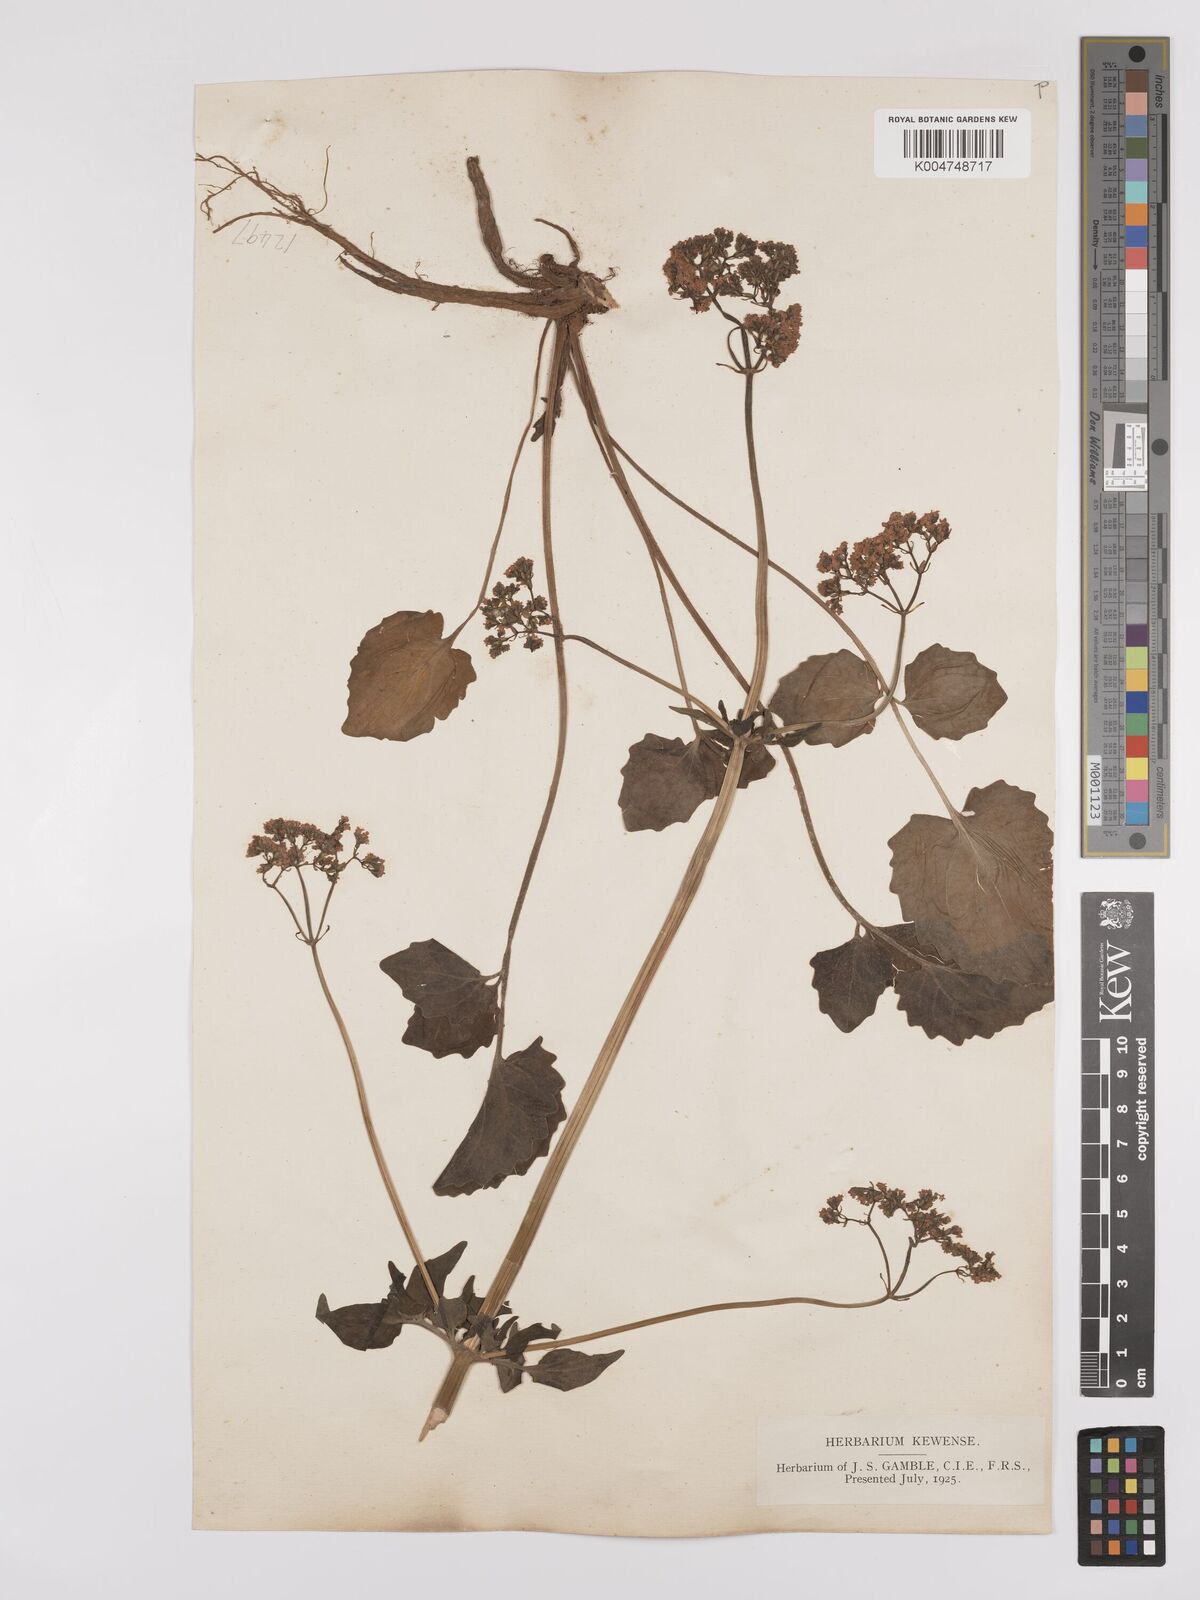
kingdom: Plantae
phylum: Tracheophyta
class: Magnoliopsida
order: Dipsacales
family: Caprifoliaceae
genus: Valeriana
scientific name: Valeriana hardwickei
